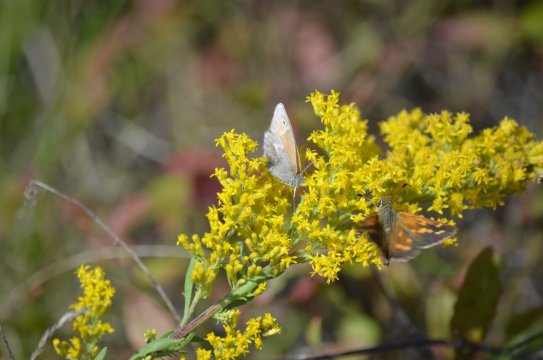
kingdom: Animalia
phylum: Arthropoda
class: Insecta
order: Lepidoptera
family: Nymphalidae
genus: Coenonympha
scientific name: Coenonympha tullia
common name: Large Heath
